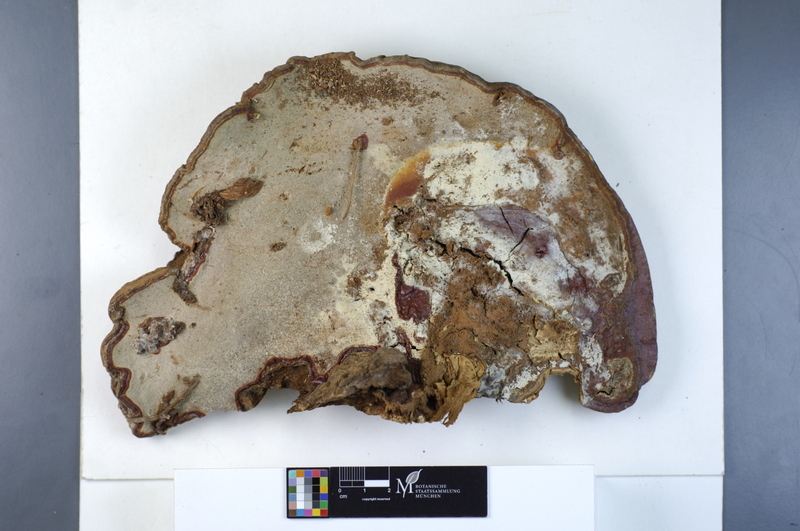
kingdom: Fungi
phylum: Basidiomycota
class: Agaricomycetes
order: Cantharellales
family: Hydnaceae
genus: Sistotrema
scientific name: Sistotrema brinkmannii
